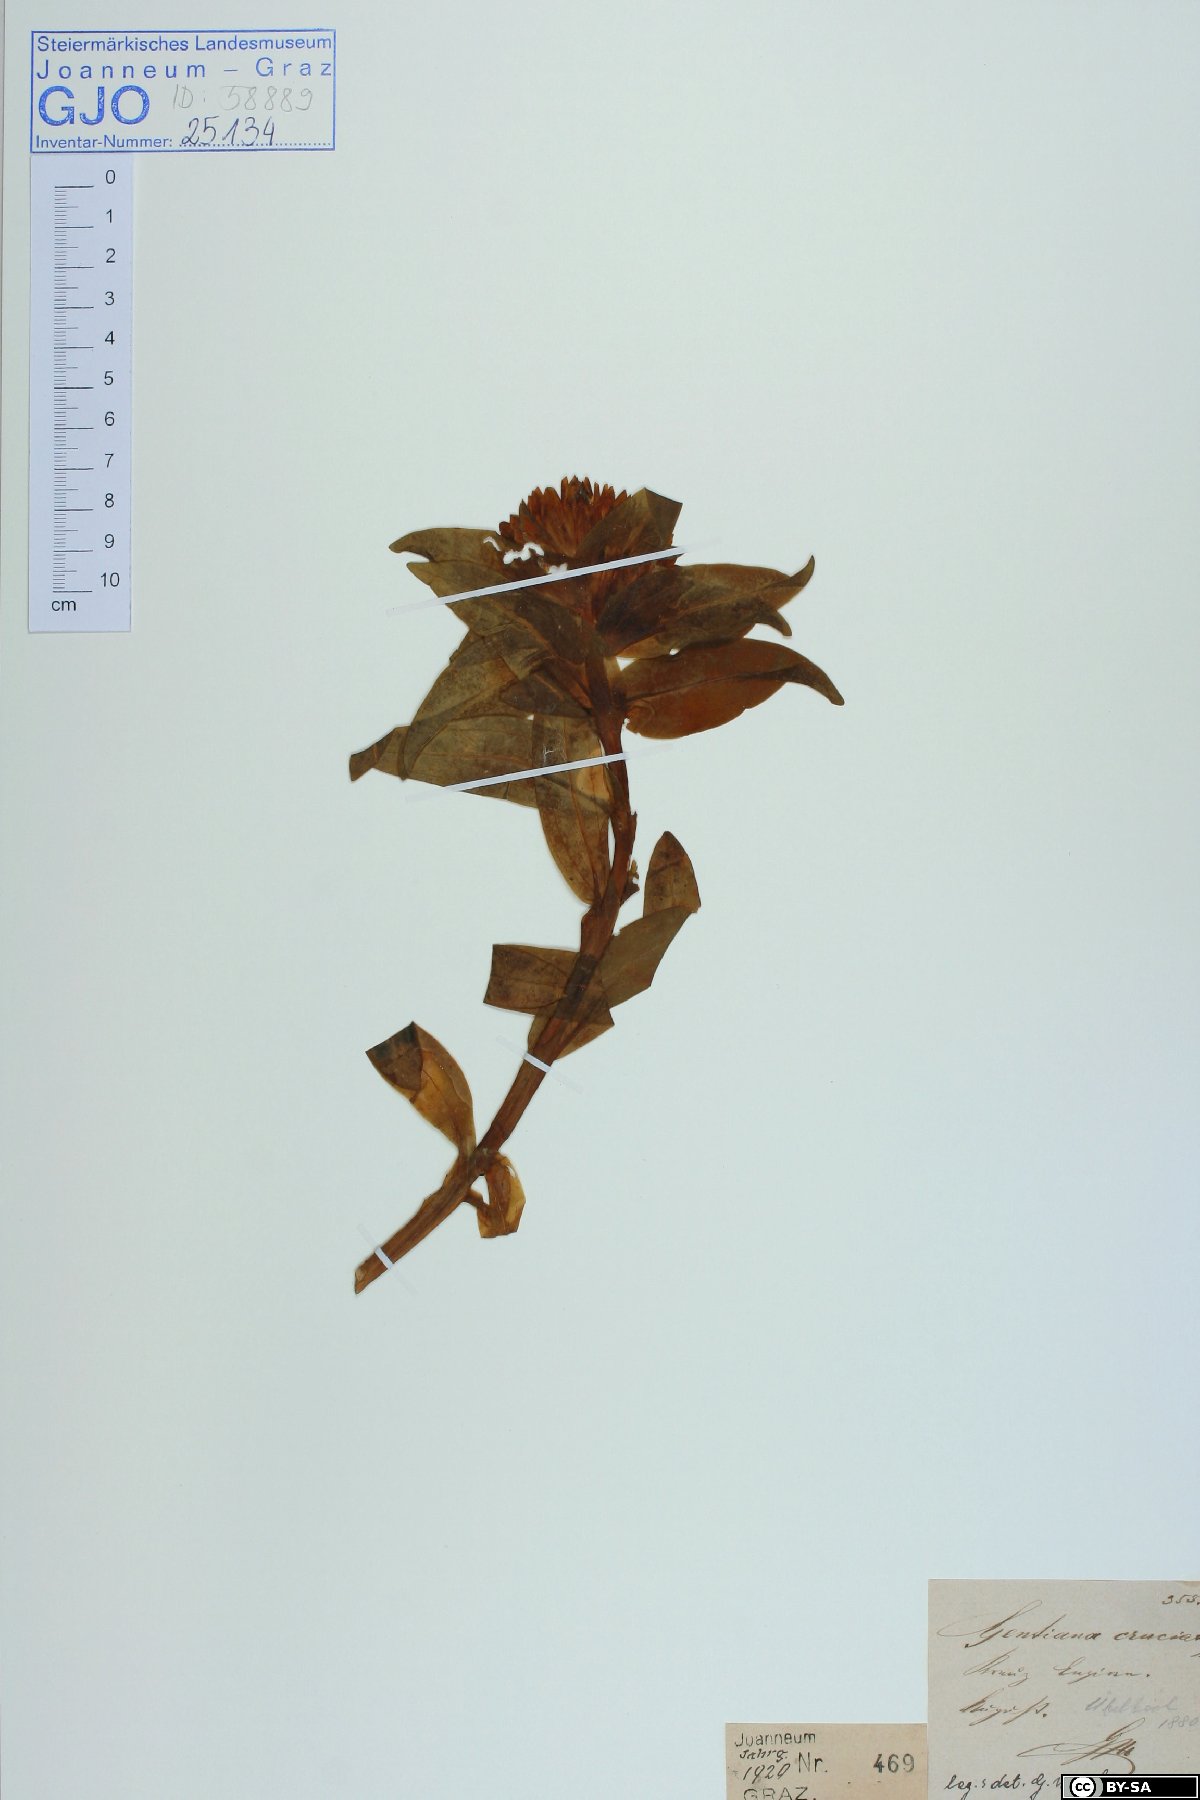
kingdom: Plantae
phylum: Tracheophyta
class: Magnoliopsida
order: Gentianales
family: Gentianaceae
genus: Gentiana
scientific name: Gentiana cruciata
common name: Cross gentian
